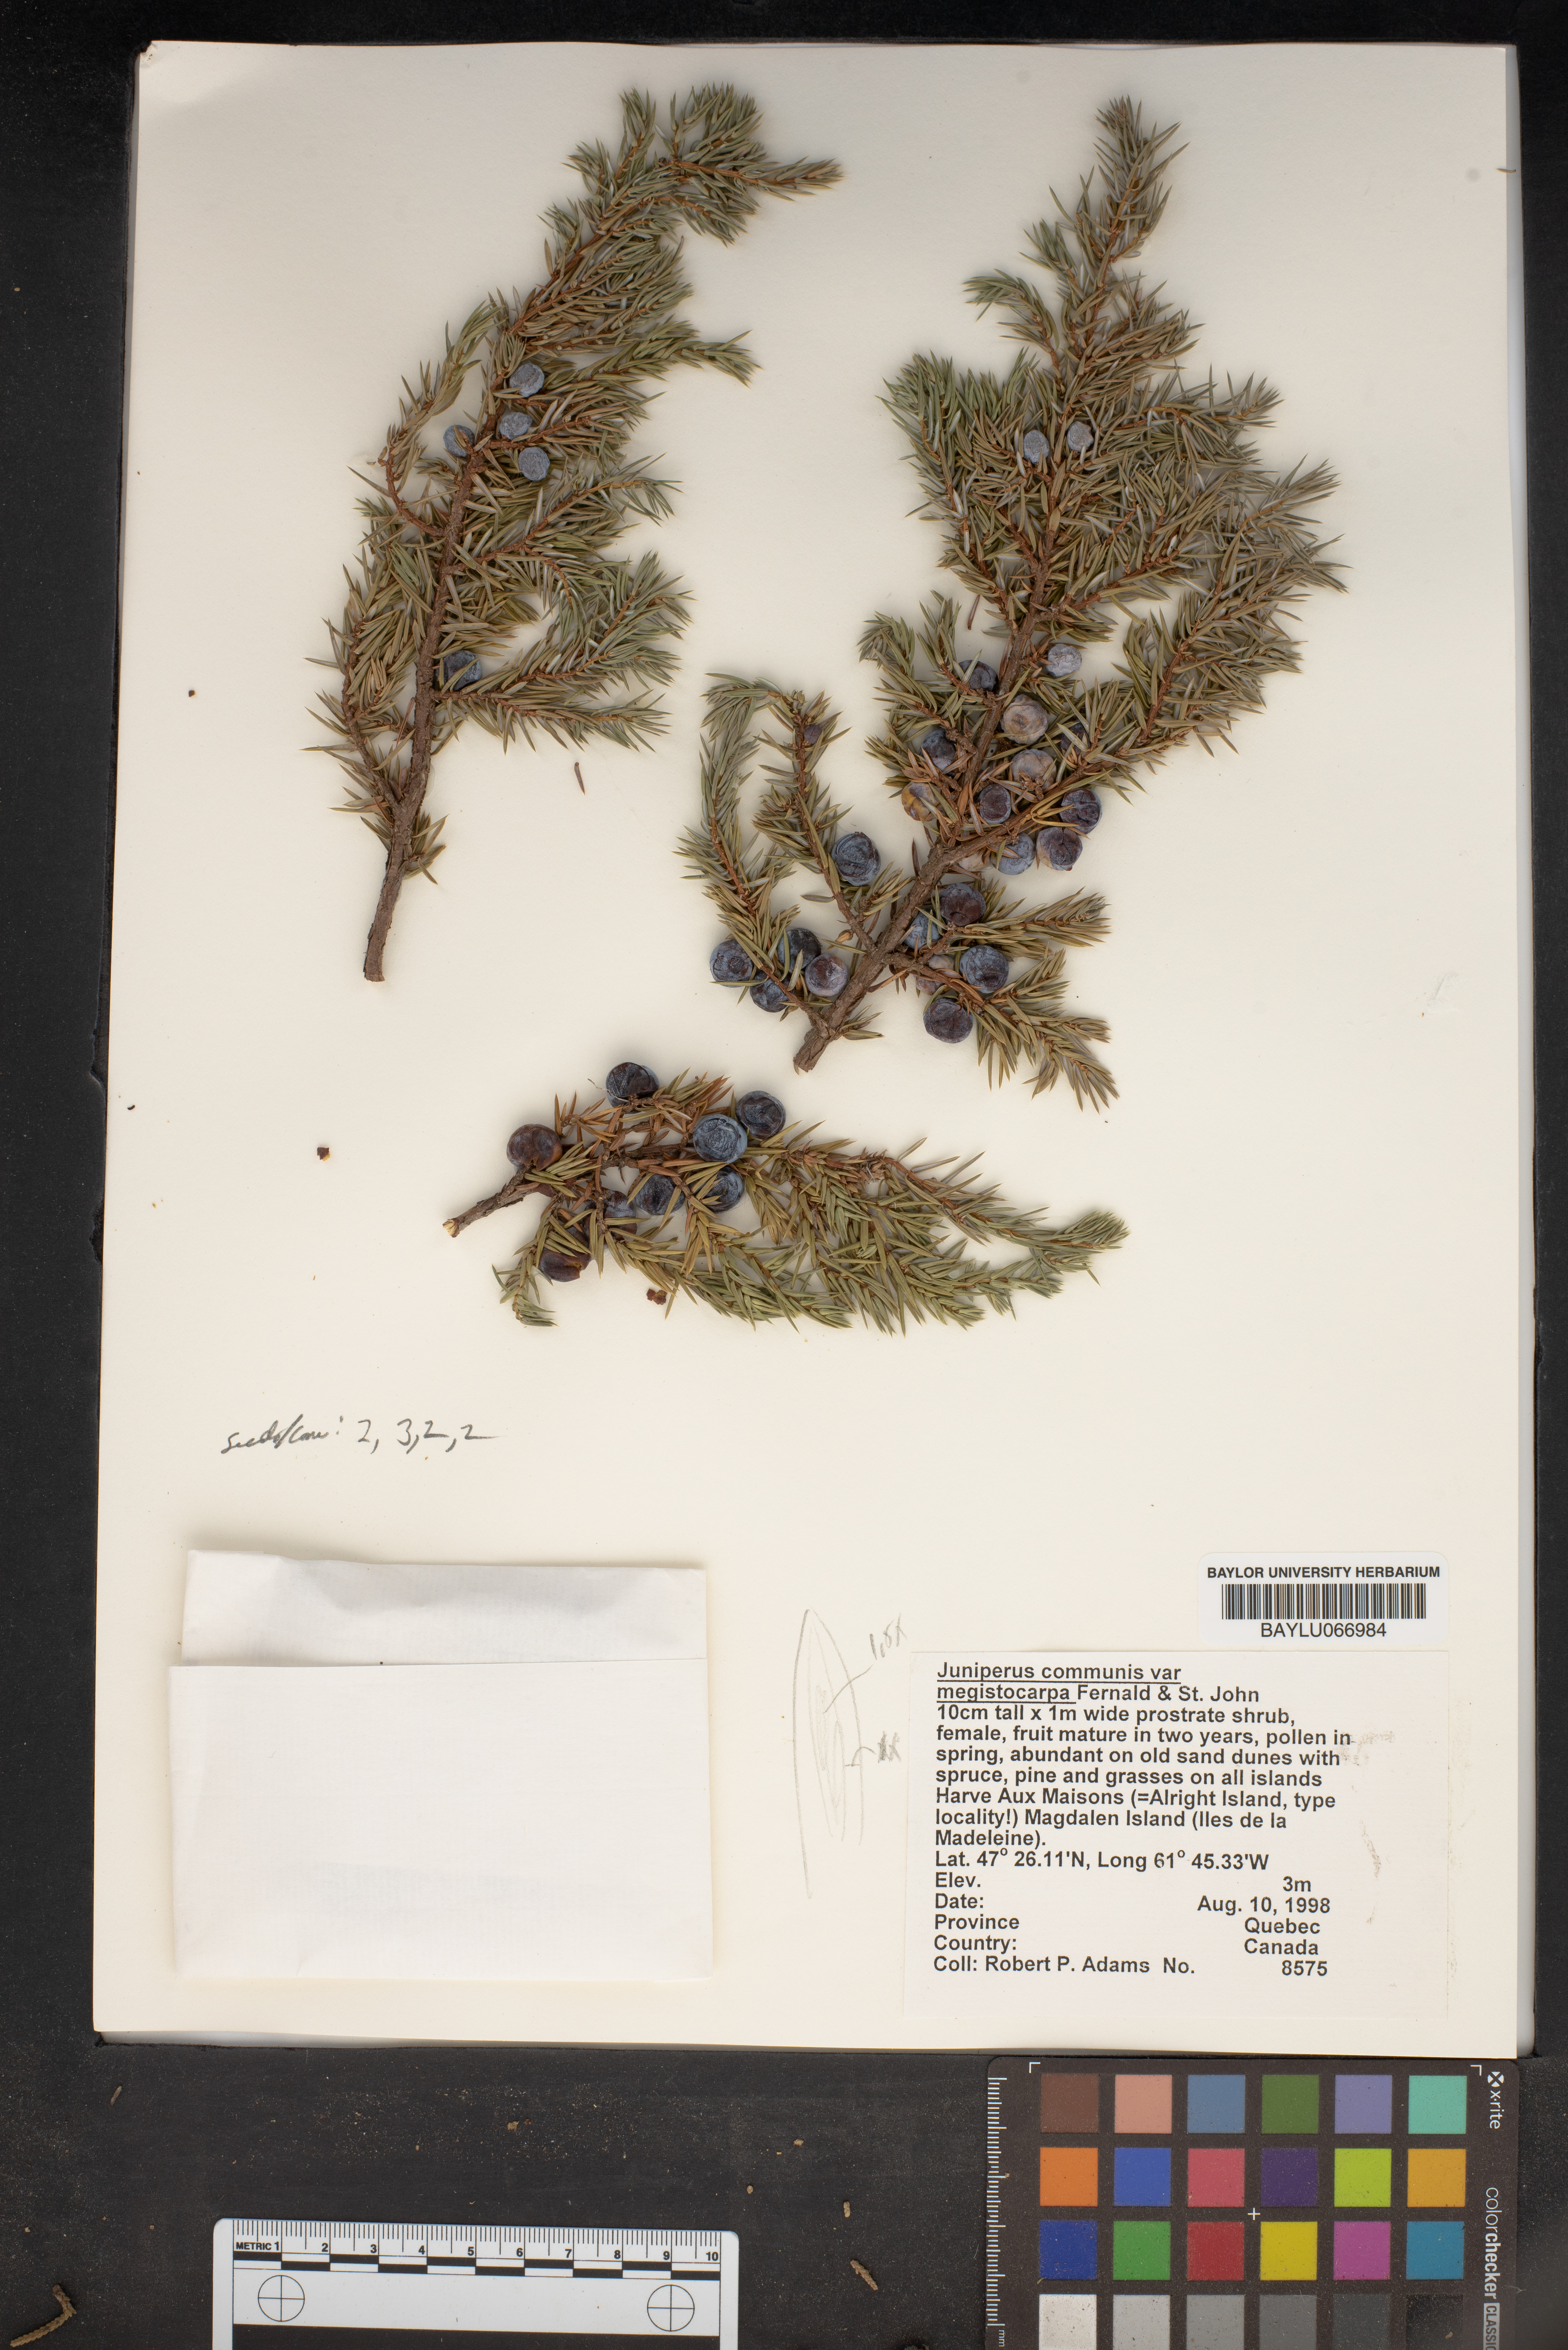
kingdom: Plantae
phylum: Tracheophyta
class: Pinopsida
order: Pinales
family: Cupressaceae
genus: Juniperus
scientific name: Juniperus communis
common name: Common juniper
